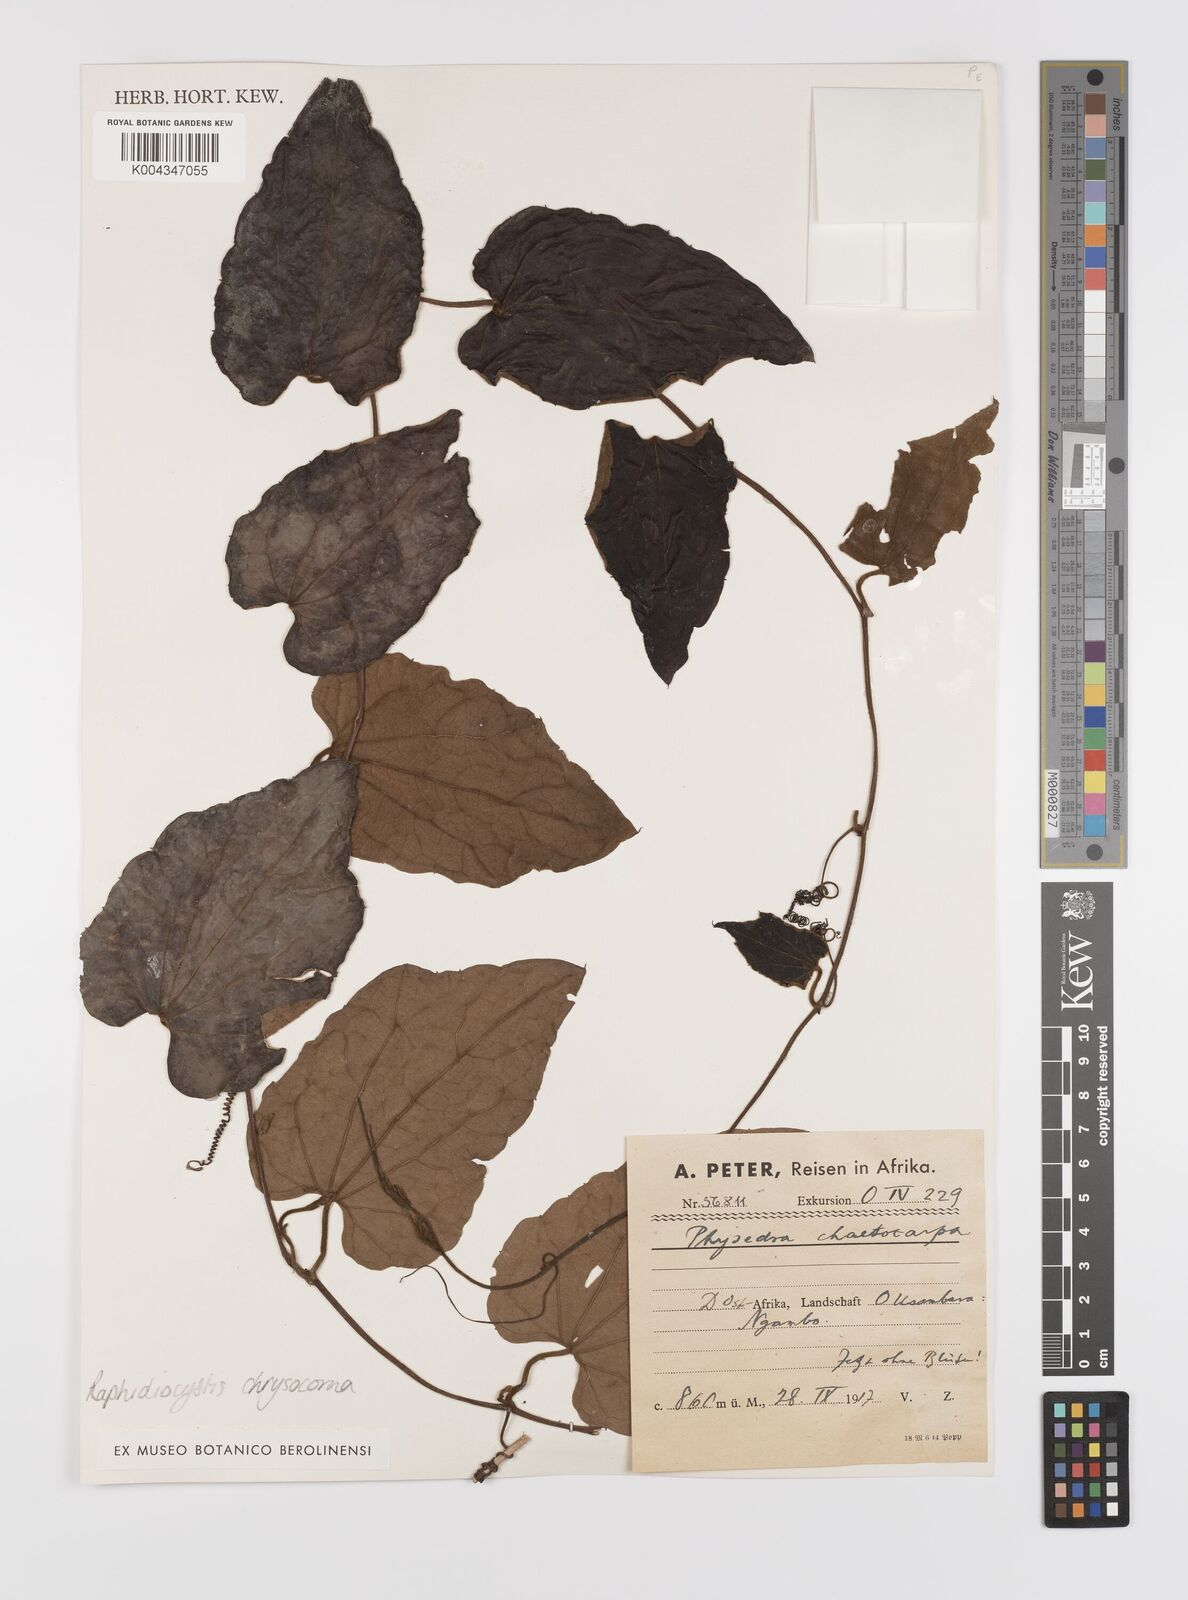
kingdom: Plantae
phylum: Tracheophyta
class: Magnoliopsida
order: Cucurbitales
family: Cucurbitaceae
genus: Raphidiocystis
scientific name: Raphidiocystis chrysocoma
